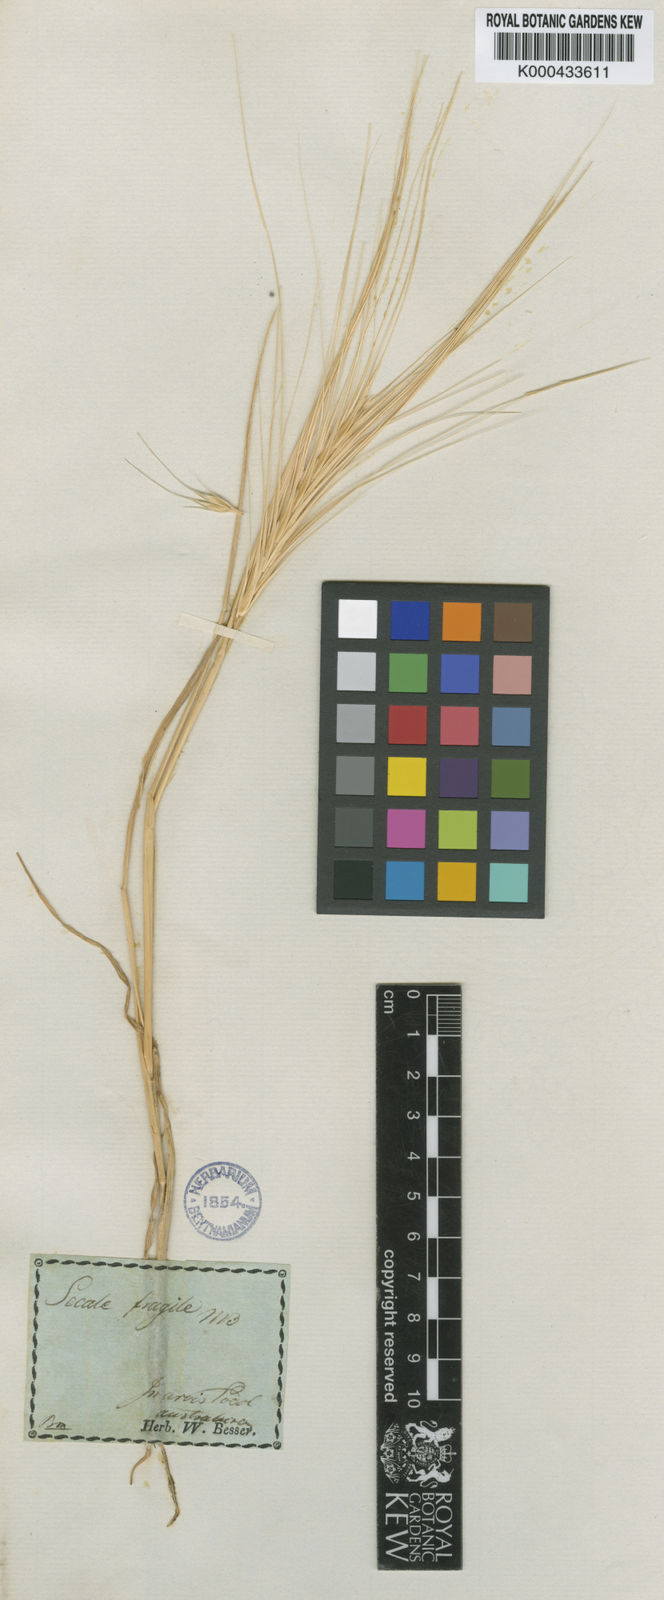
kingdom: Plantae
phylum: Tracheophyta
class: Liliopsida
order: Poales
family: Poaceae
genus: Secale
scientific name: Secale sylvestre
